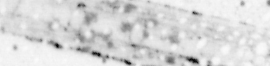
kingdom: Animalia
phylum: Chordata
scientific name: Chordata
